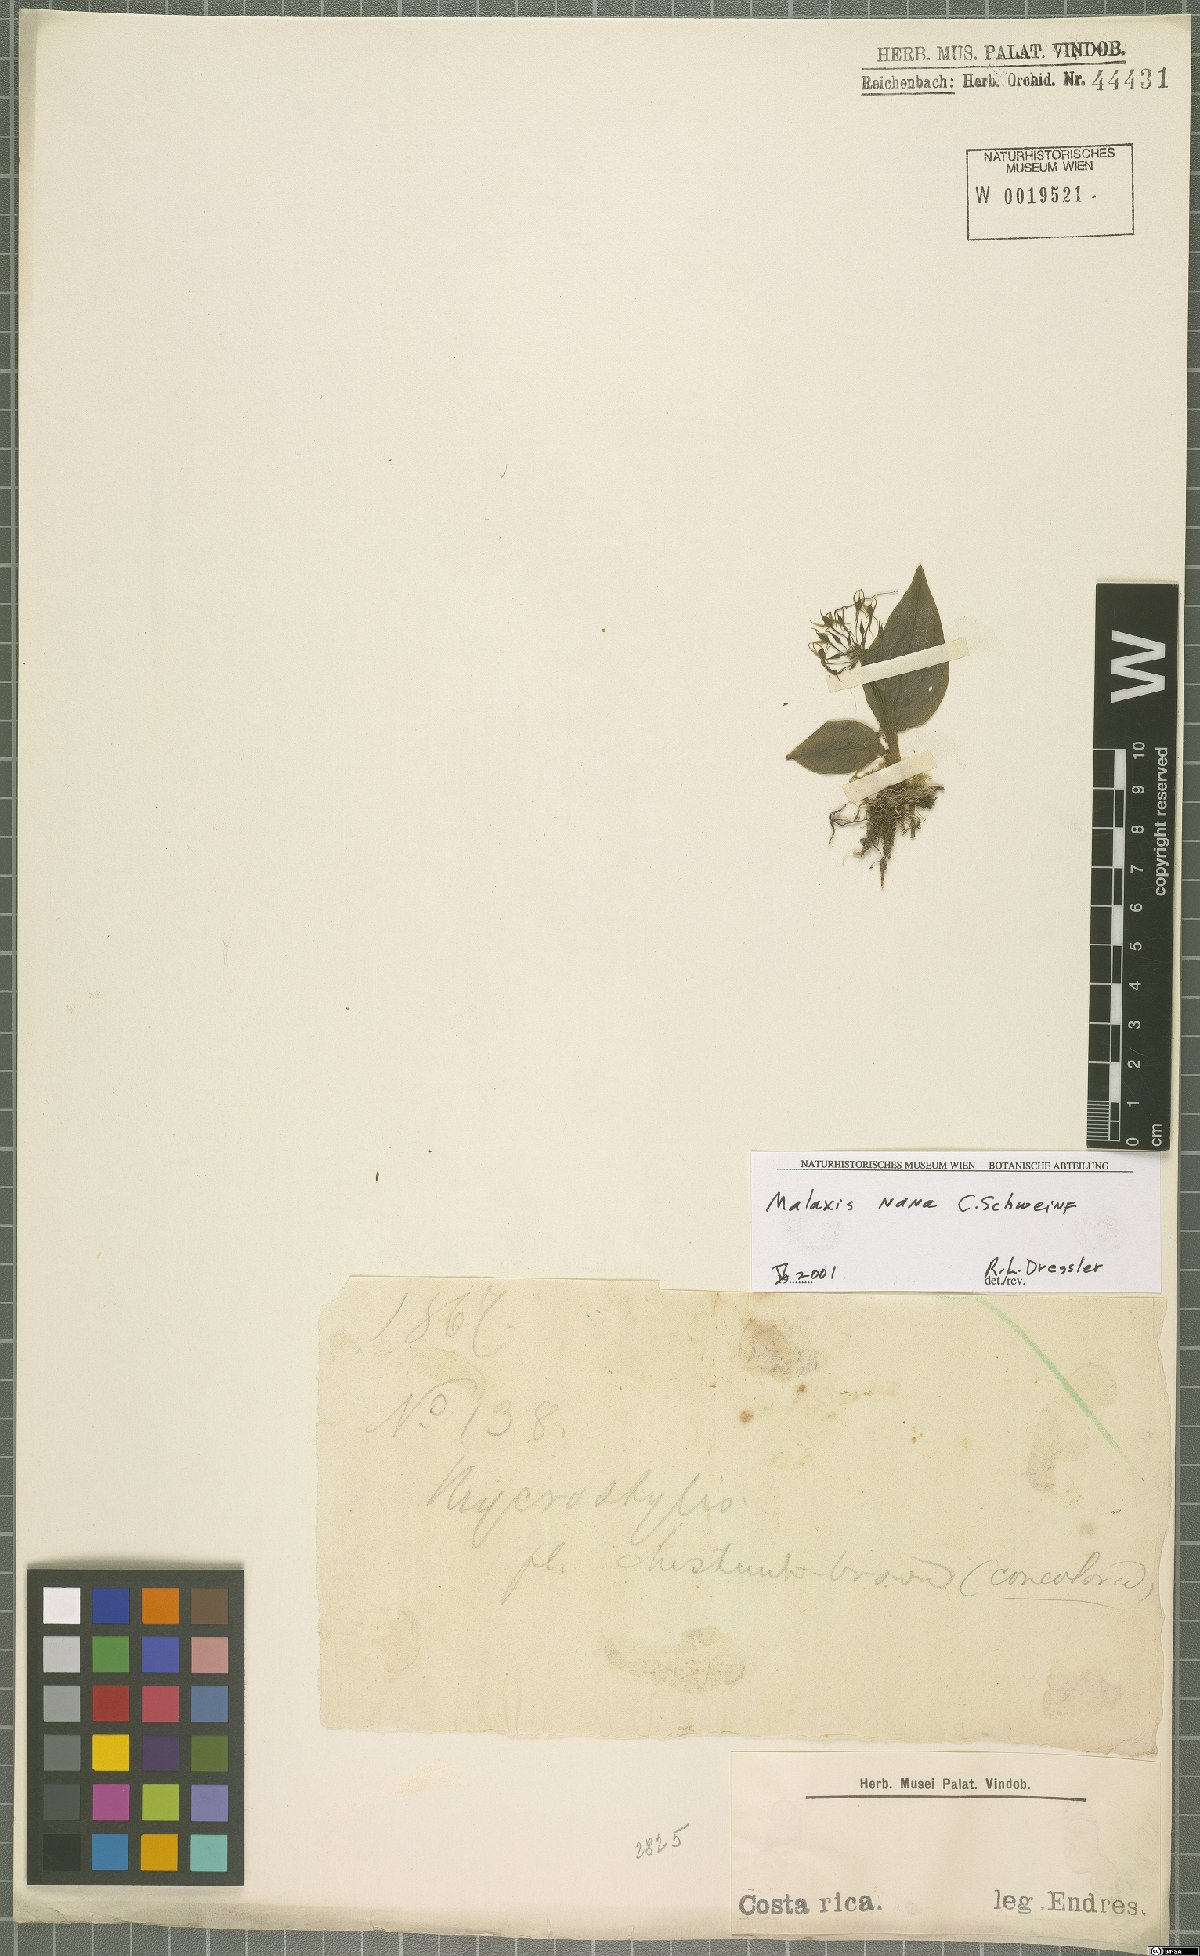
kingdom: Plantae
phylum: Tracheophyta
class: Liliopsida
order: Asparagales
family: Orchidaceae
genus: Malaxis
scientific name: Malaxis nana
